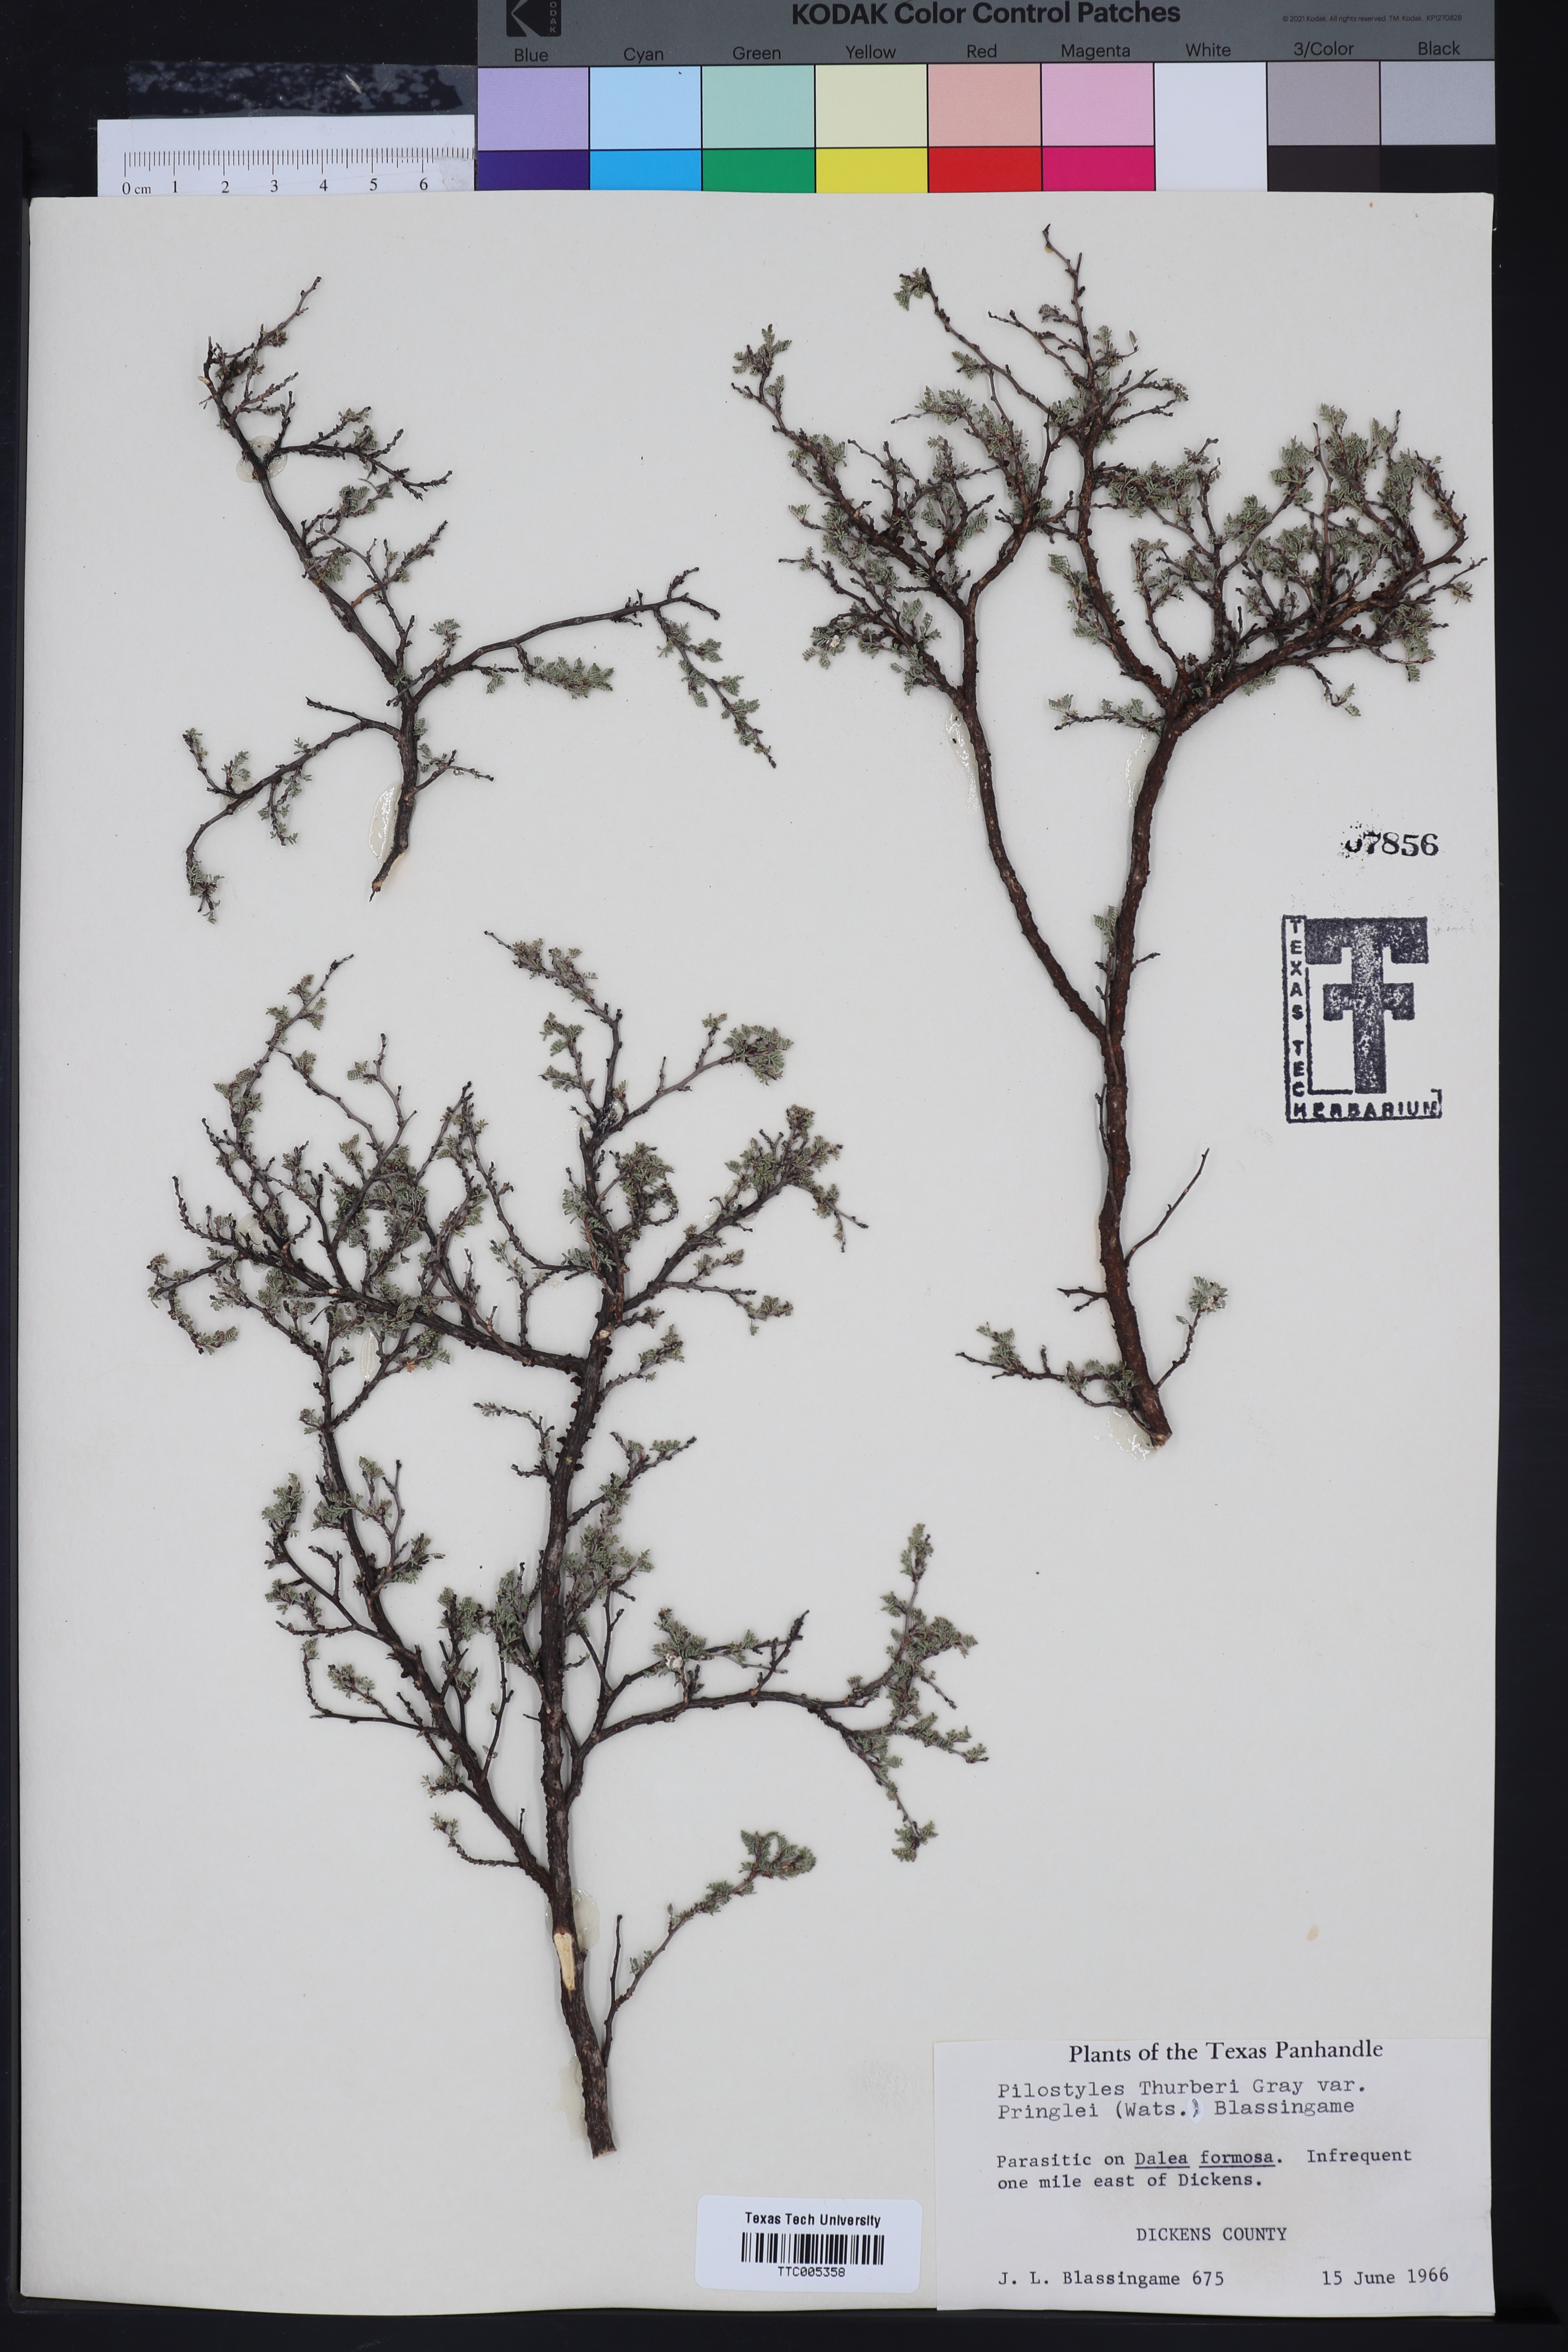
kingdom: Plantae
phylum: Tracheophyta
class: Magnoliopsida
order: Cucurbitales
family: Apodanthaceae
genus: Pilostyles
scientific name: Pilostyles thurberi
